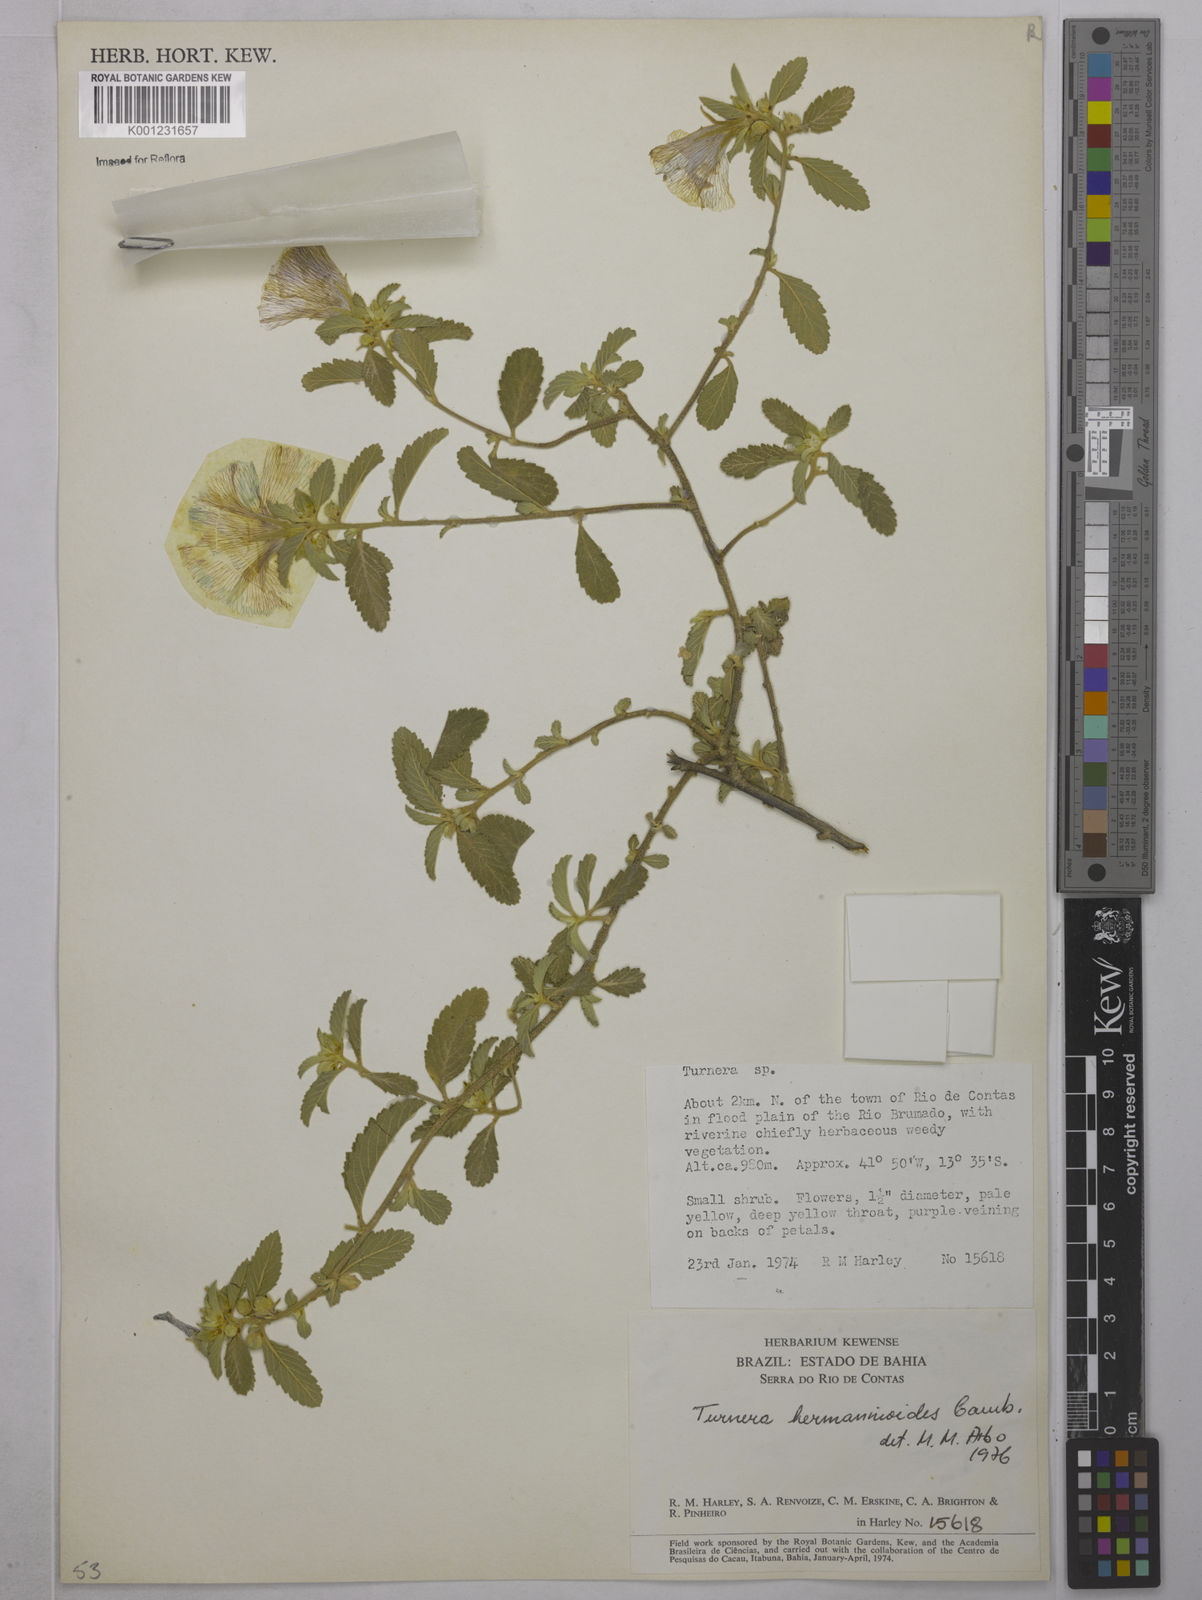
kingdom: Plantae
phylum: Tracheophyta
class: Magnoliopsida
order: Malpighiales
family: Turneraceae
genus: Turnera
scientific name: Turnera hermannioides
